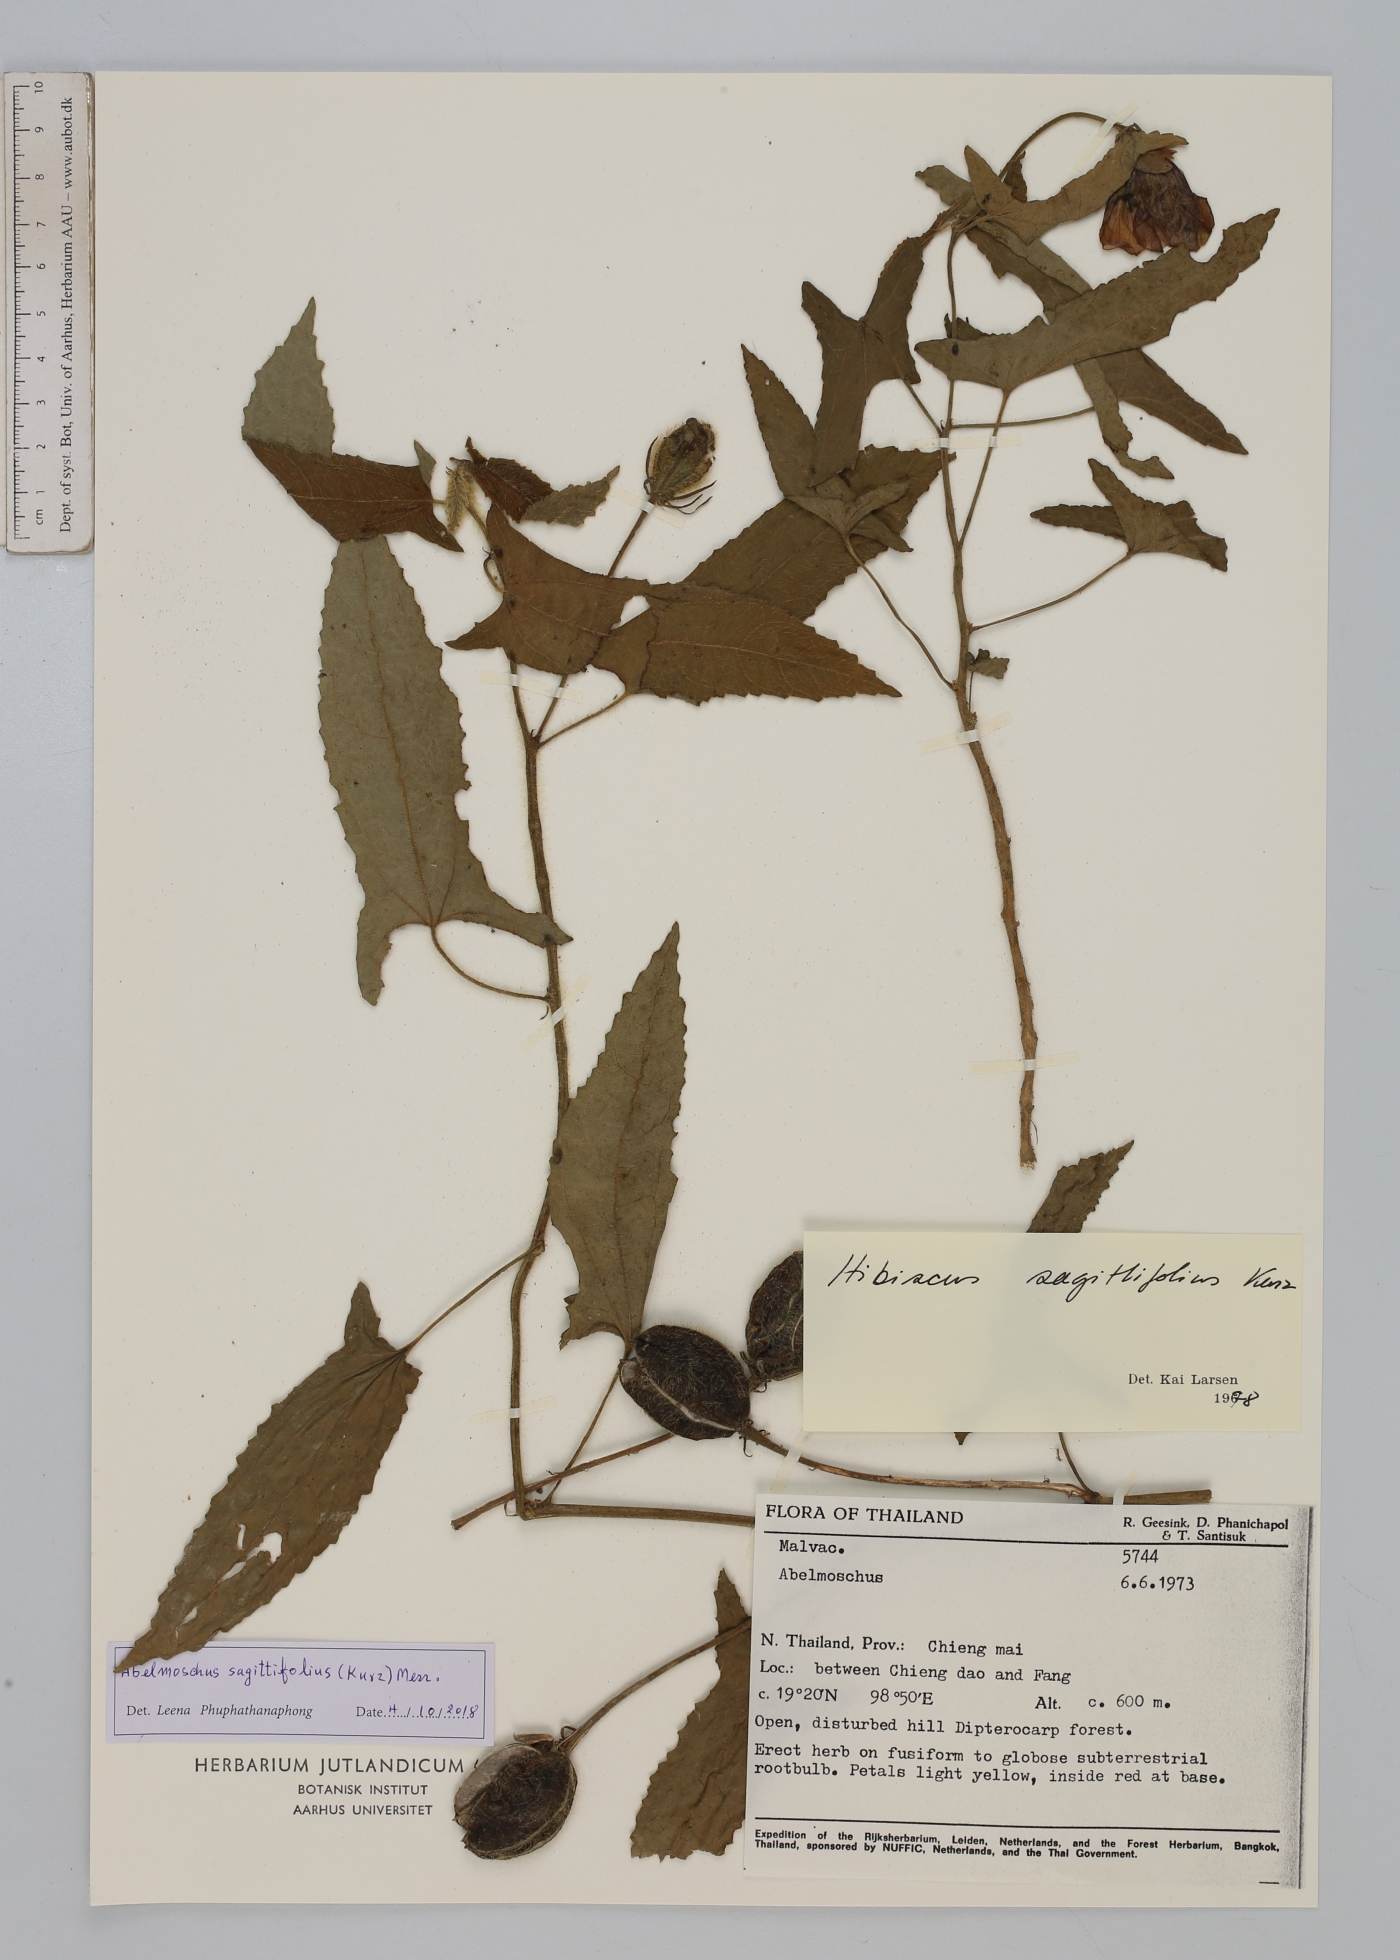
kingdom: Plantae
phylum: Tracheophyta
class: Magnoliopsida
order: Malvales
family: Malvaceae
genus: Abelmoschus
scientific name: Abelmoschus sagittifolius
